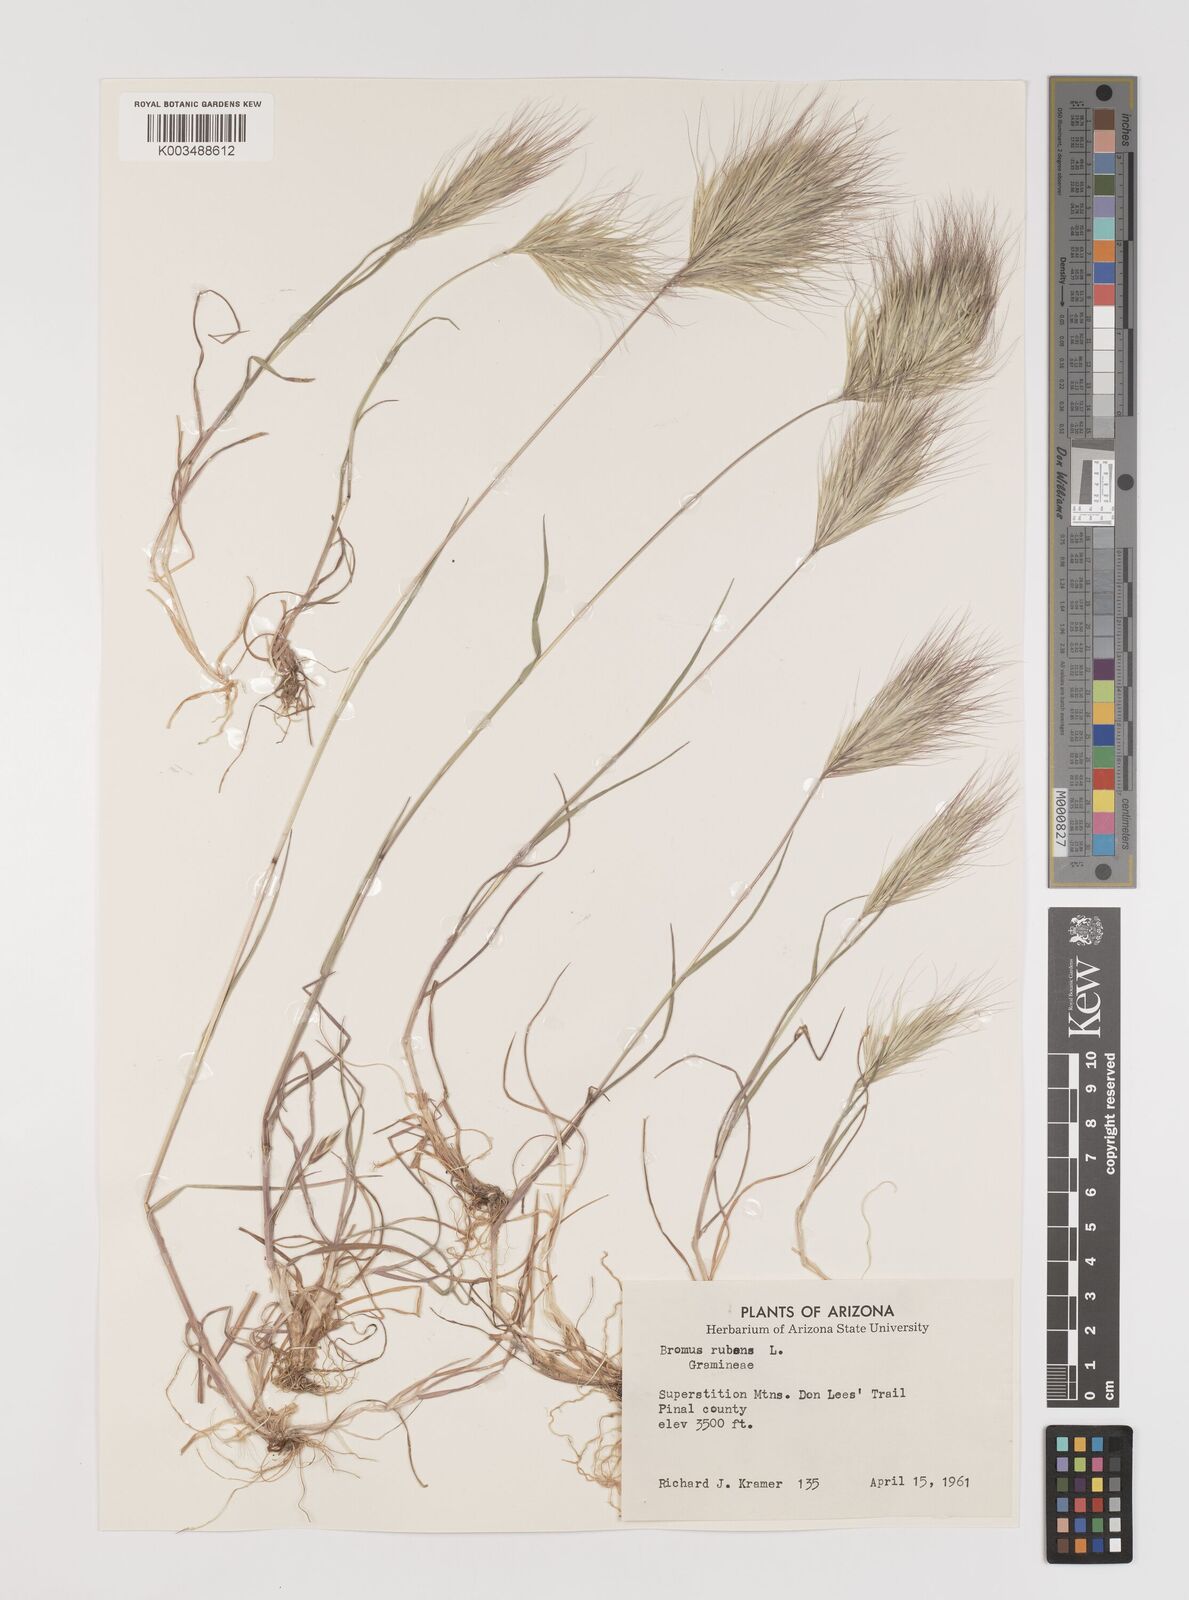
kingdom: Plantae
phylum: Tracheophyta
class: Liliopsida
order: Poales
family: Poaceae
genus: Bromus
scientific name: Bromus rubens
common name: Red brome
